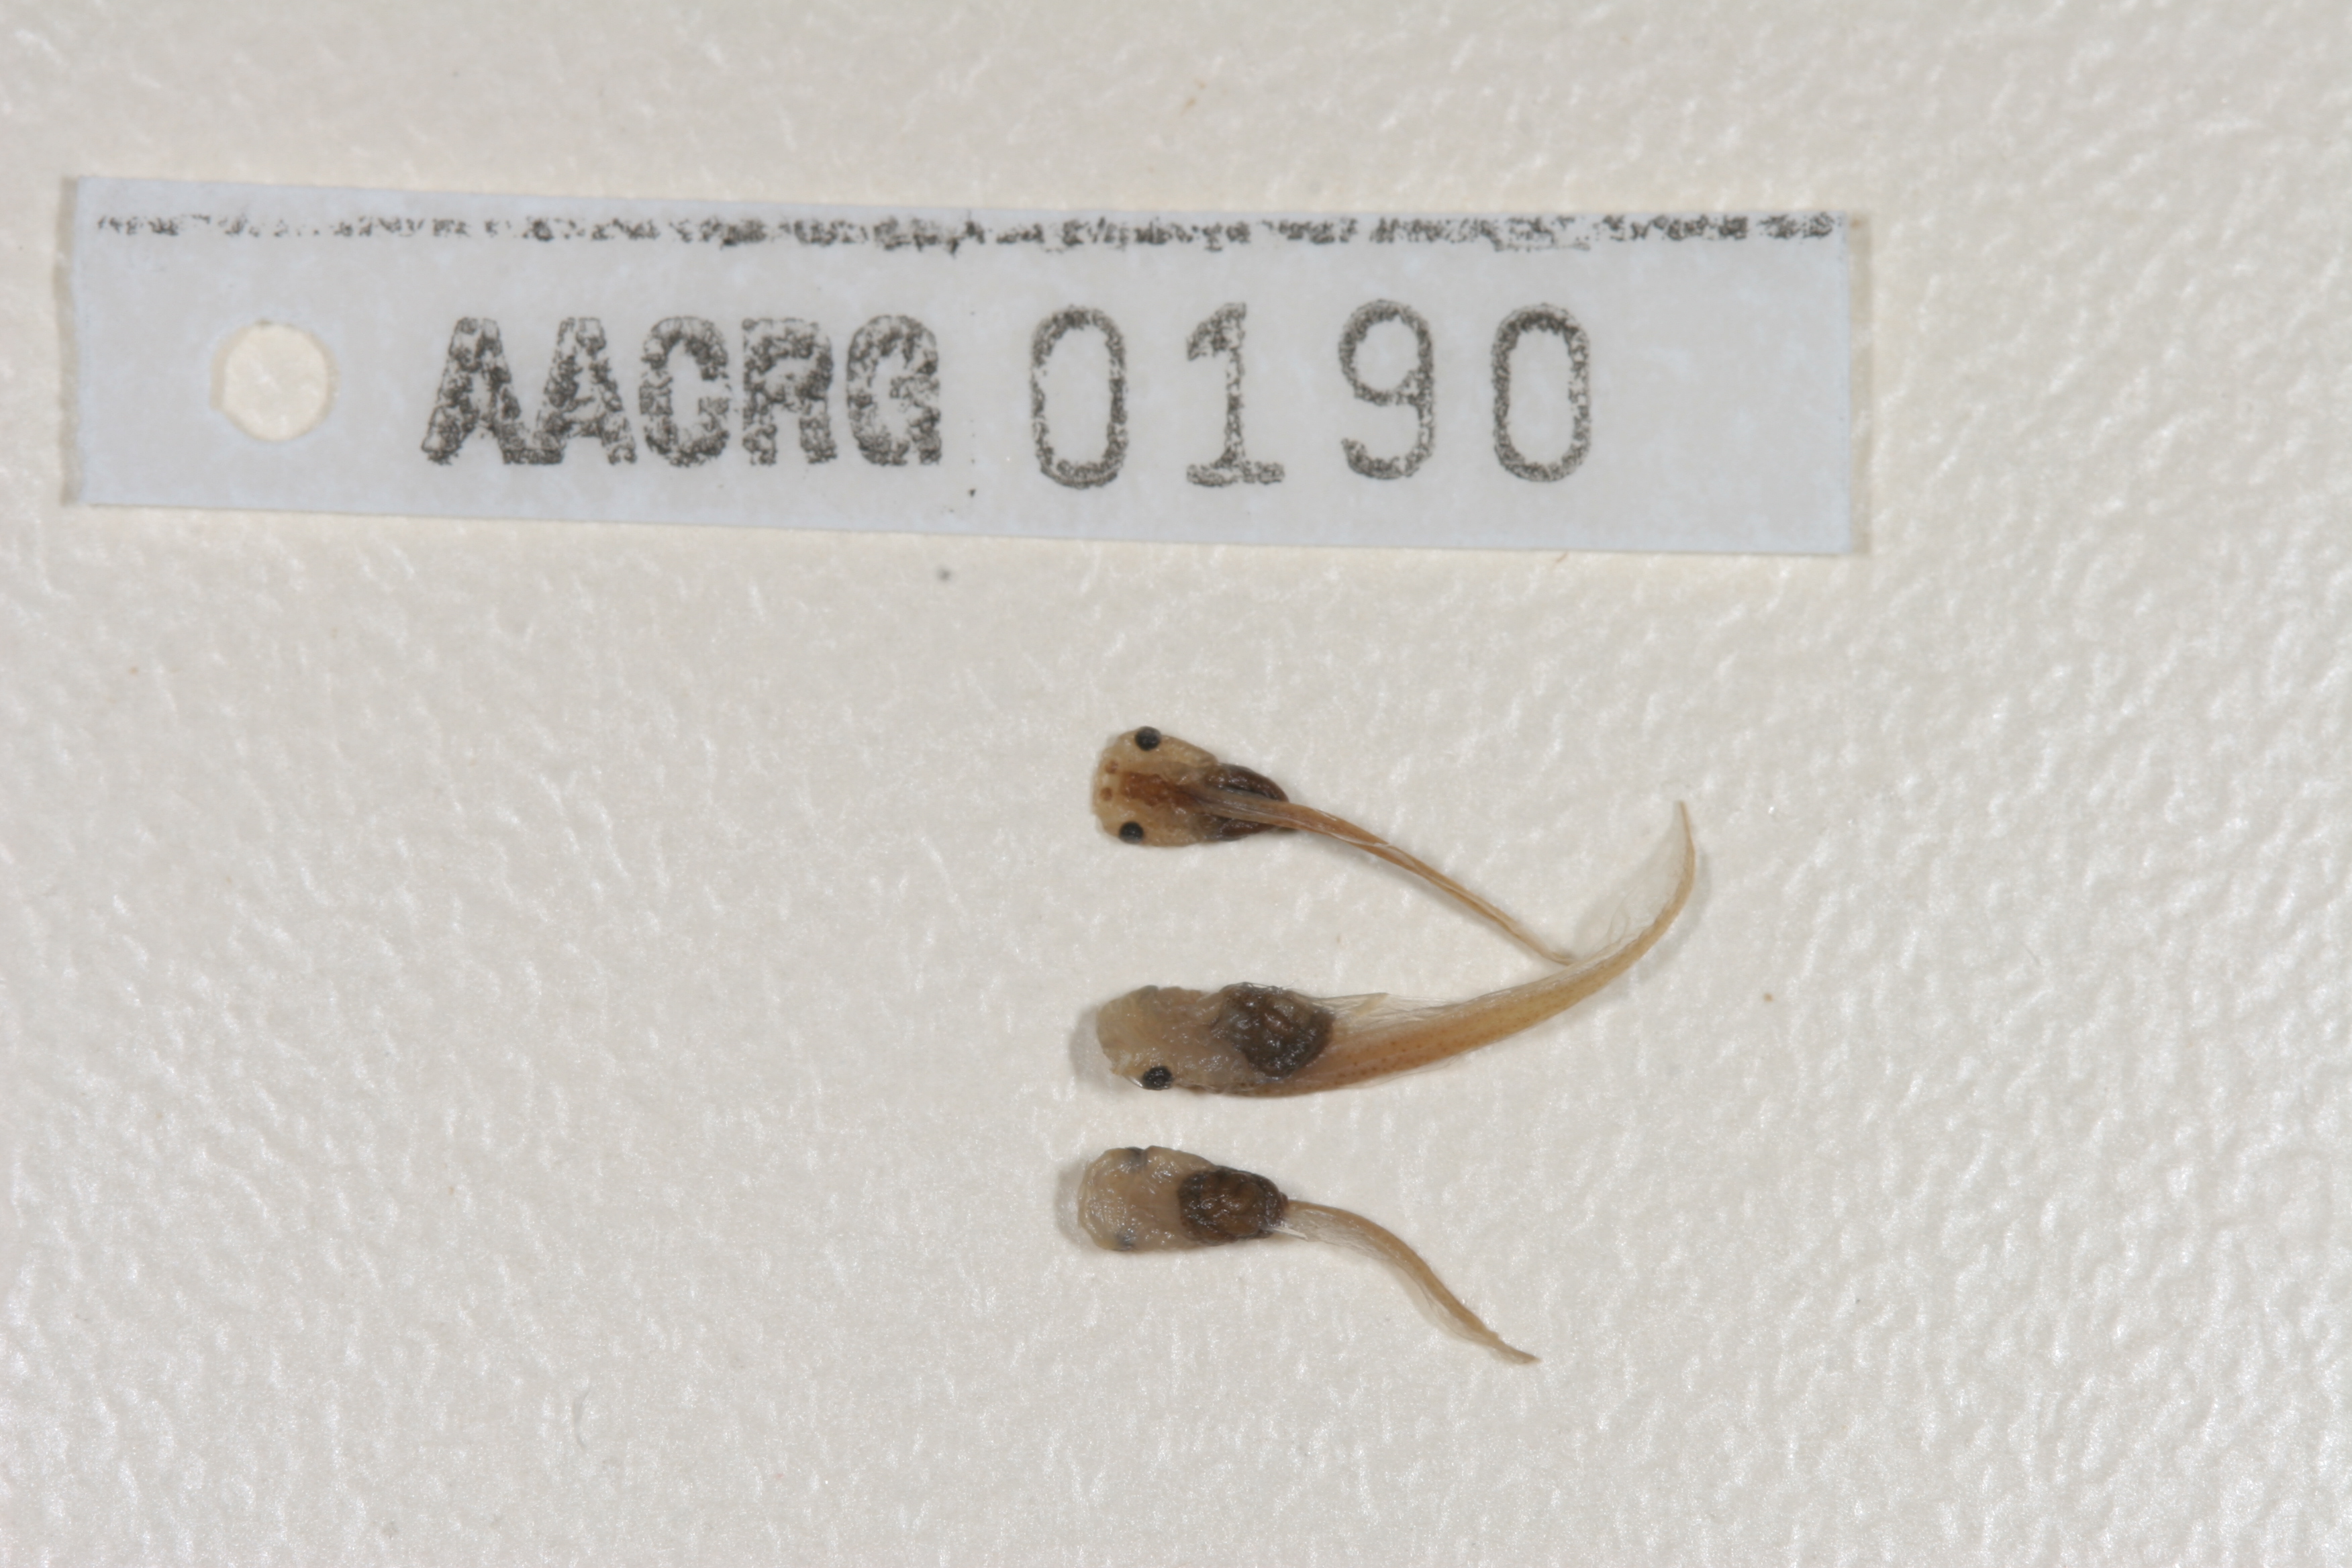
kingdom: Animalia
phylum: Chordata
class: Amphibia
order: Anura
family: Pipidae
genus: Xenopus
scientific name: Xenopus laevis
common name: African clawed frog
